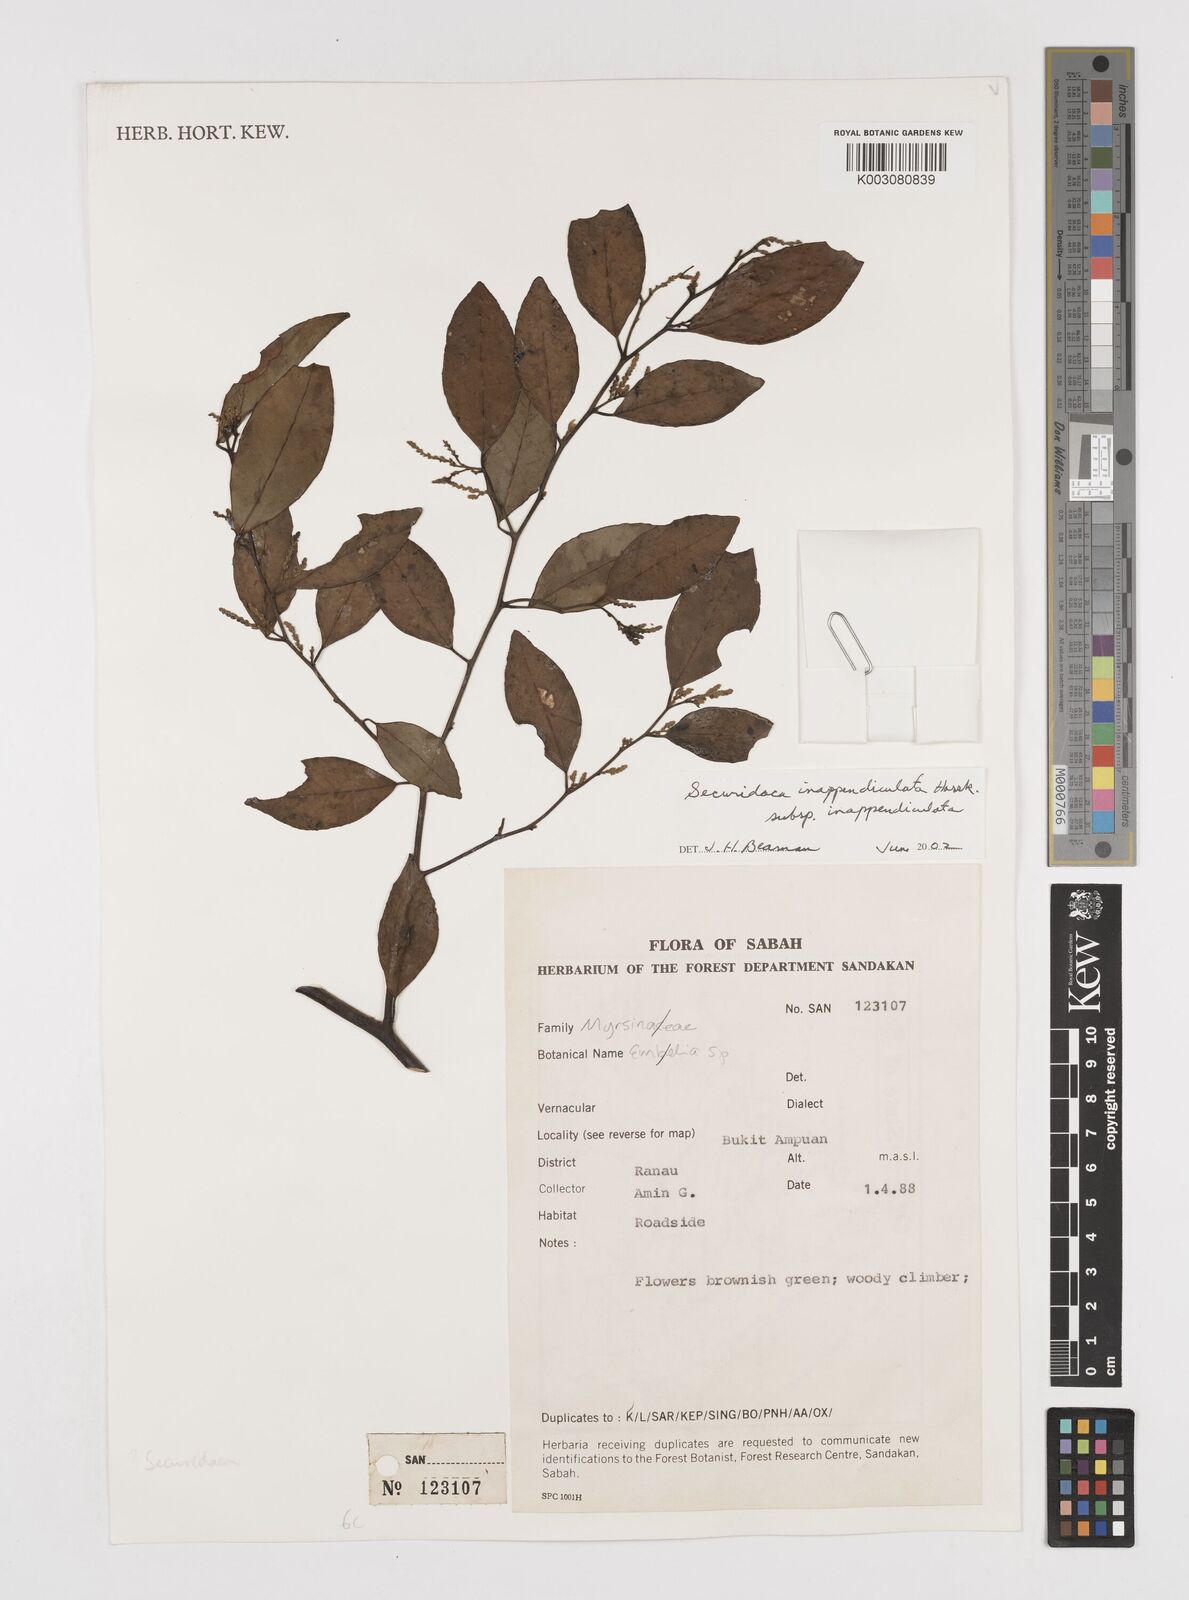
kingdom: Plantae
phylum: Tracheophyta
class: Magnoliopsida
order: Fabales
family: Polygalaceae
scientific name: Polygalaceae
